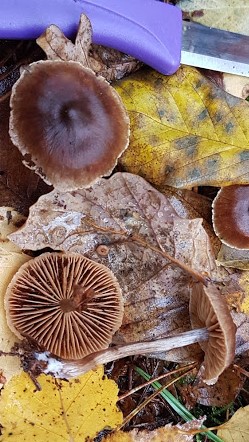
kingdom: Fungi
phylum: Basidiomycota
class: Agaricomycetes
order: Agaricales
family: Cortinariaceae
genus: Cortinarius
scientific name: Cortinarius
